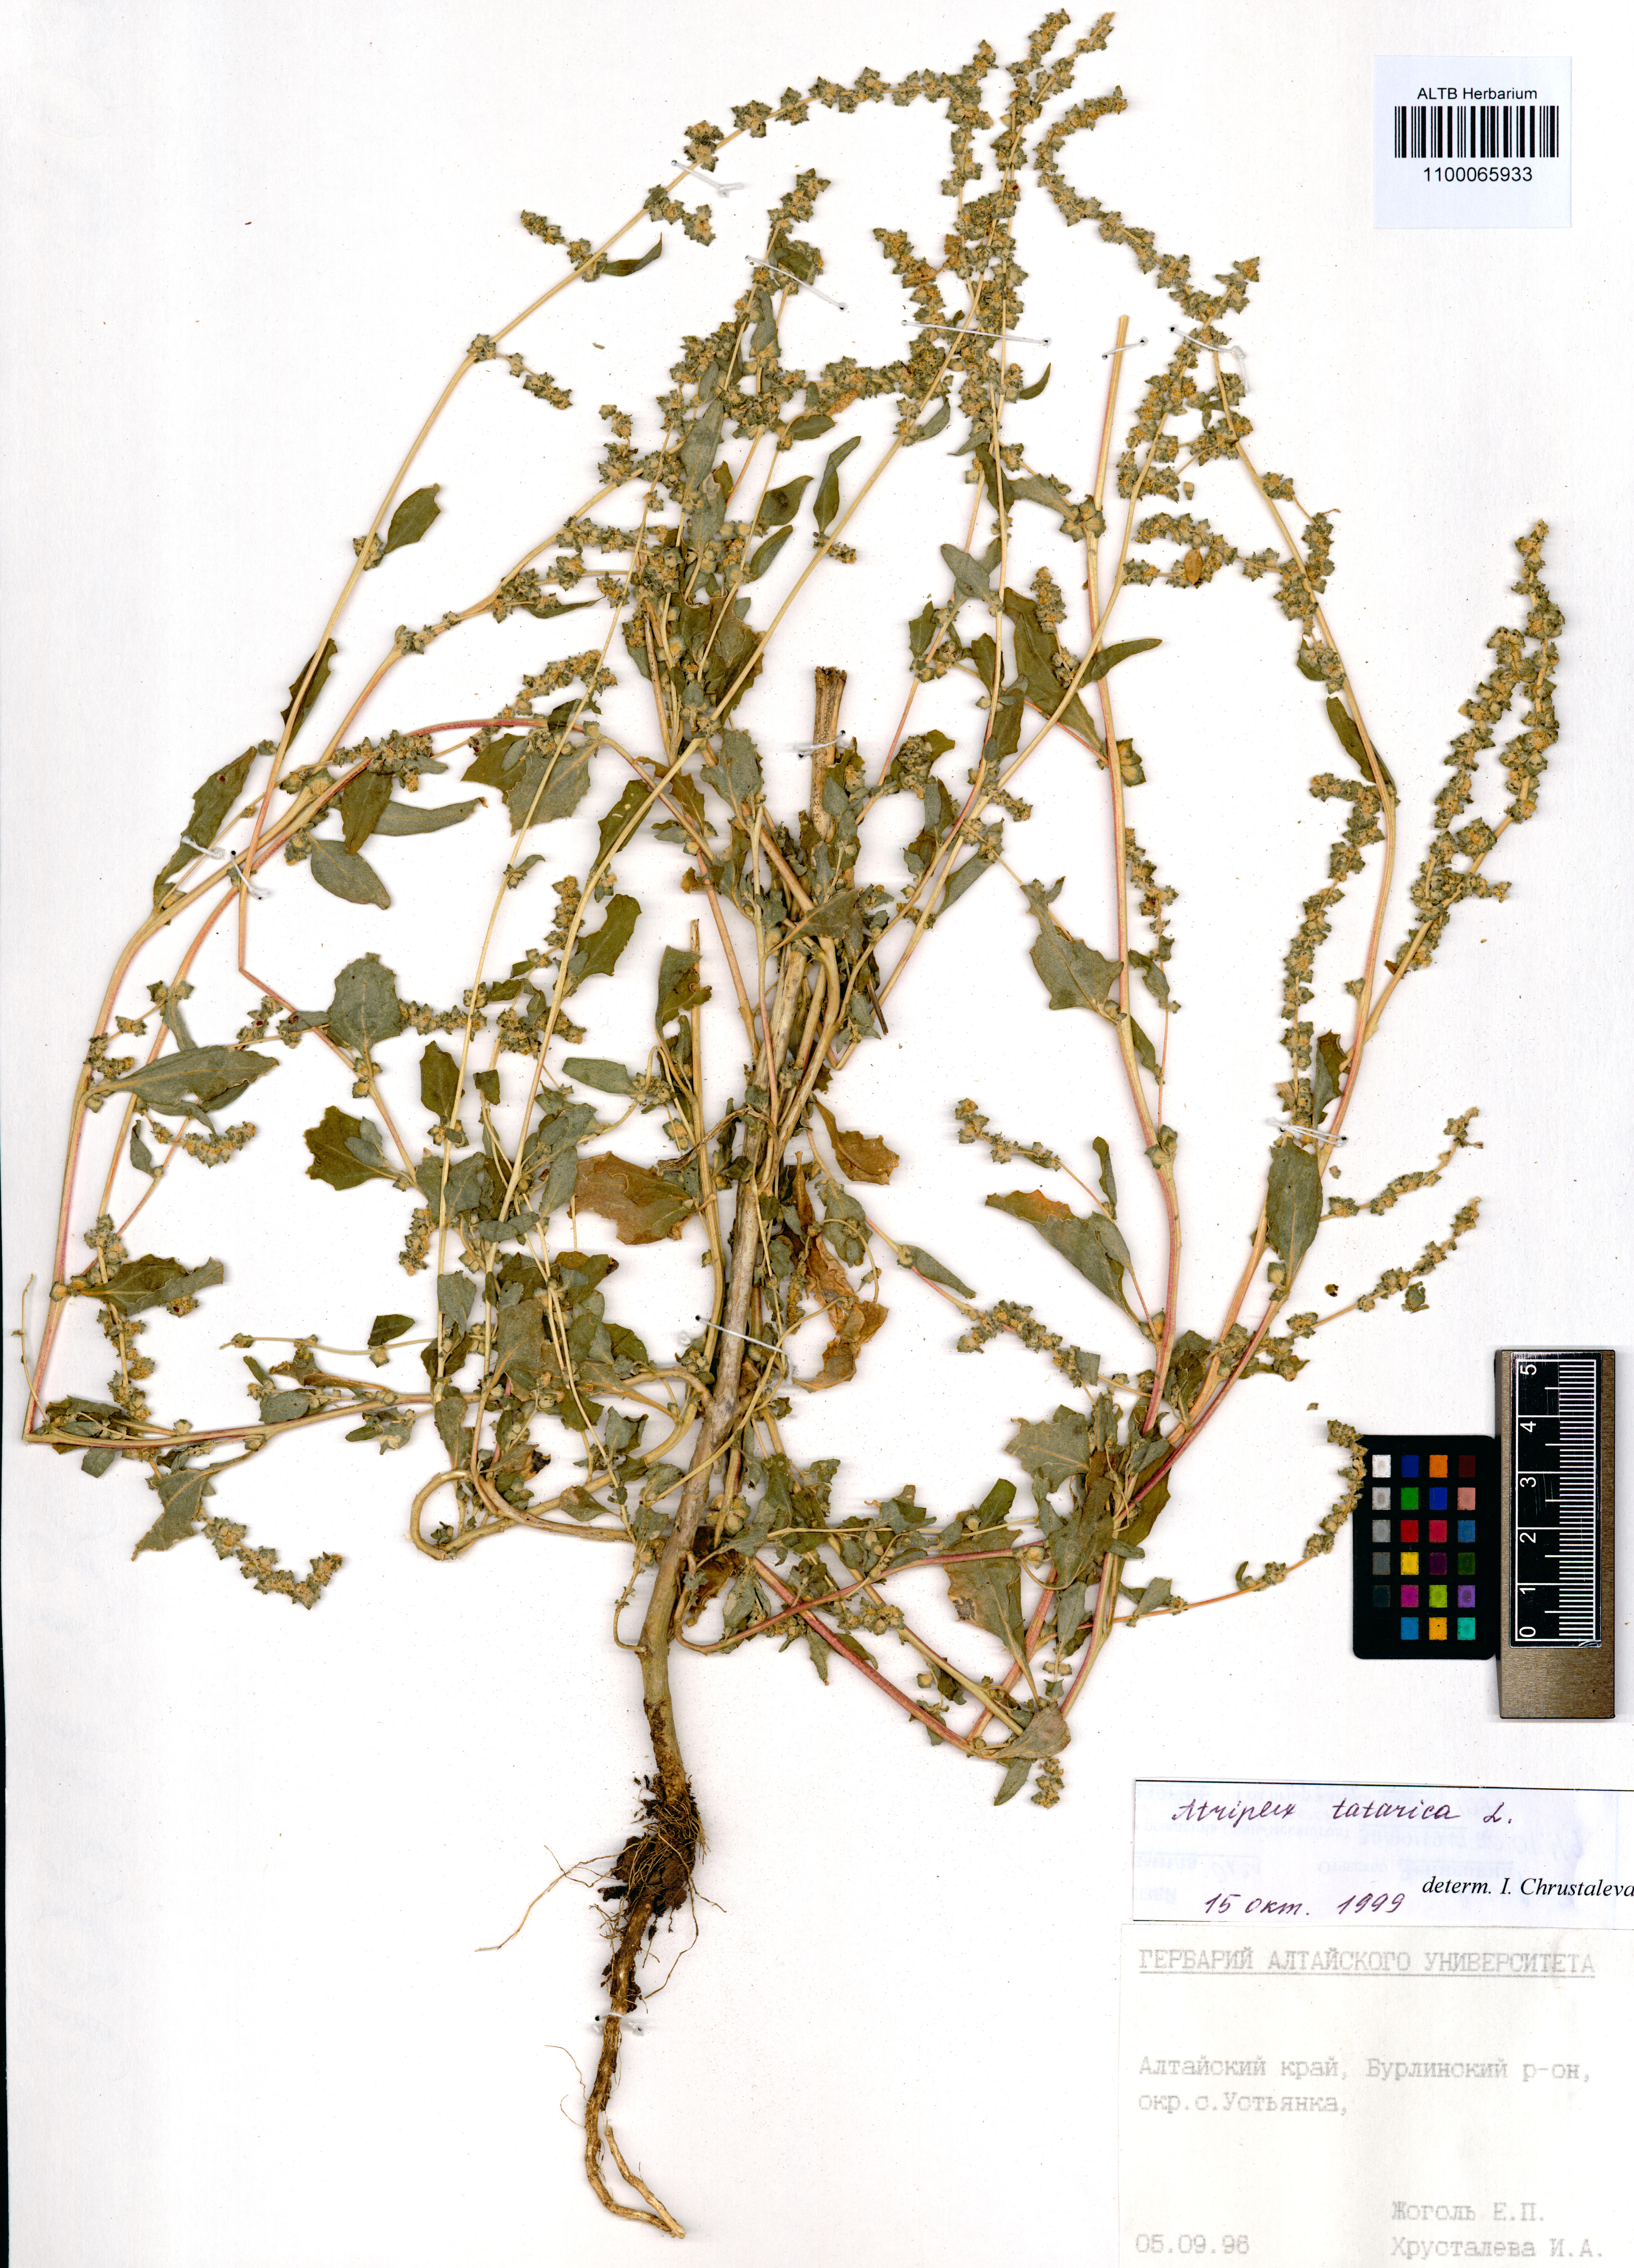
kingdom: Plantae
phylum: Tracheophyta
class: Magnoliopsida
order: Caryophyllales
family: Amaranthaceae
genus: Atriplex
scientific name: Atriplex tatarica
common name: Tatarian orache
